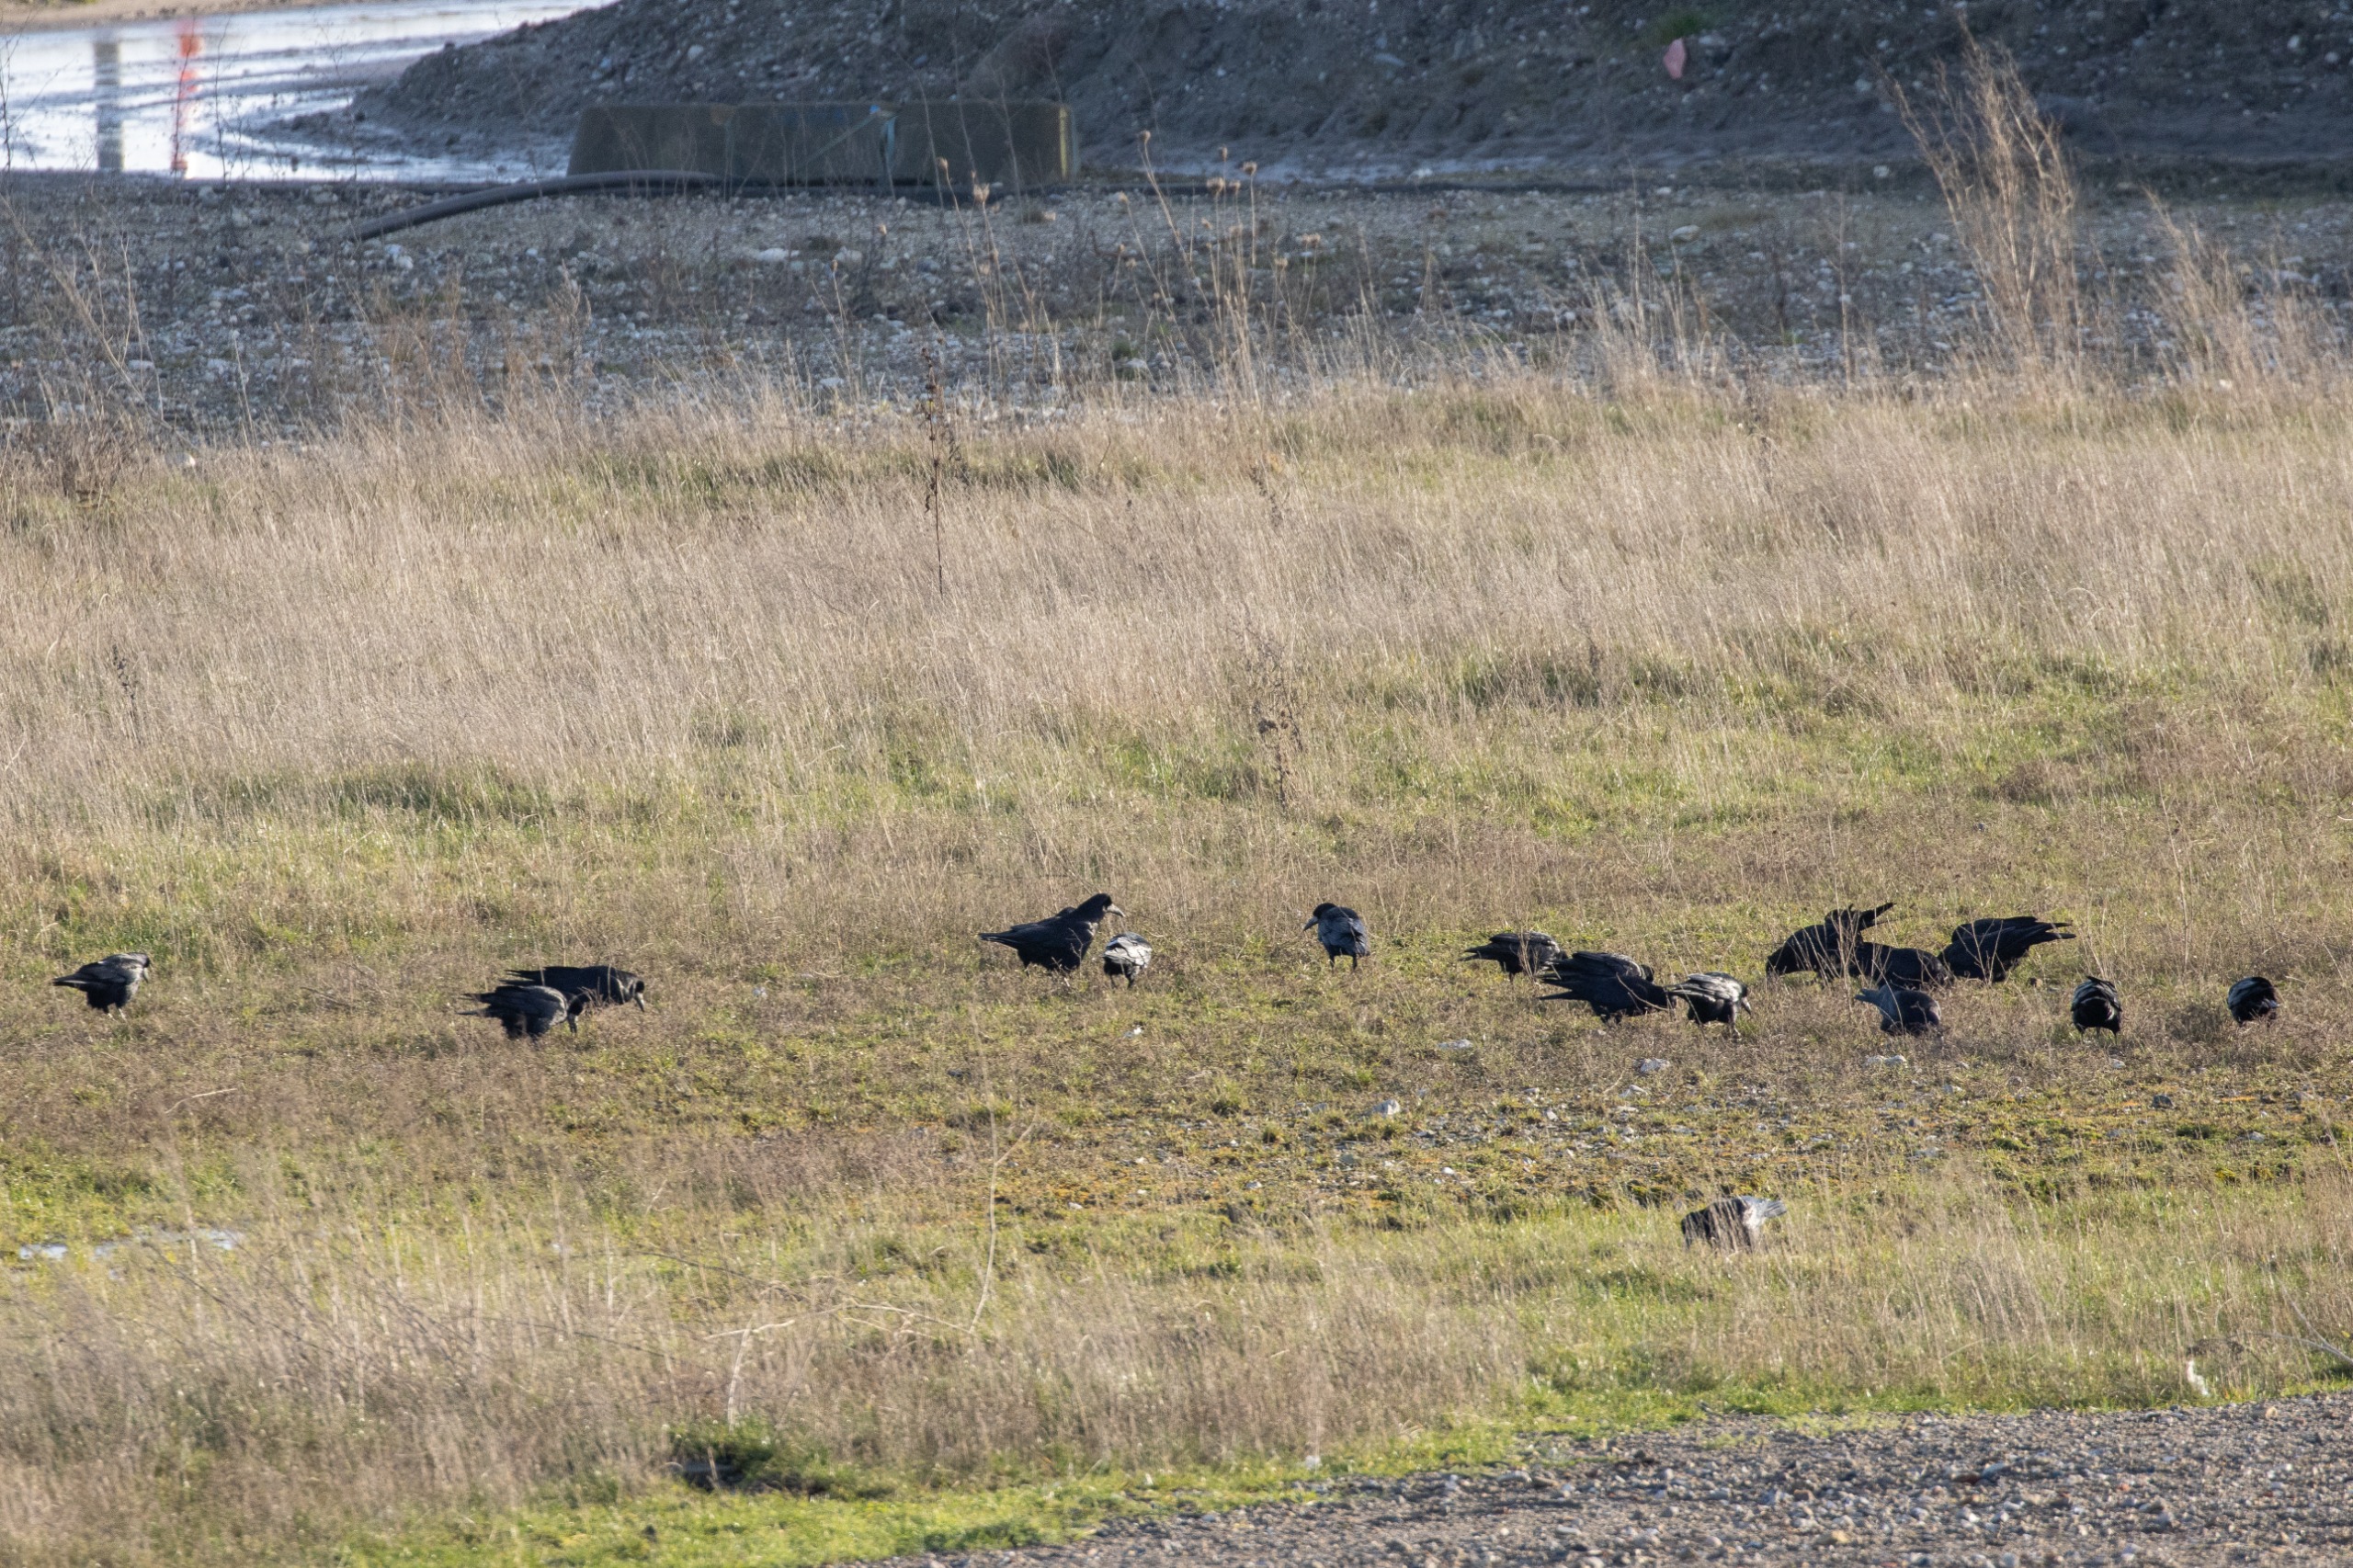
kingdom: Animalia
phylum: Chordata
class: Aves
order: Passeriformes
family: Corvidae
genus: Corvus
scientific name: Corvus frugilegus
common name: Råge
